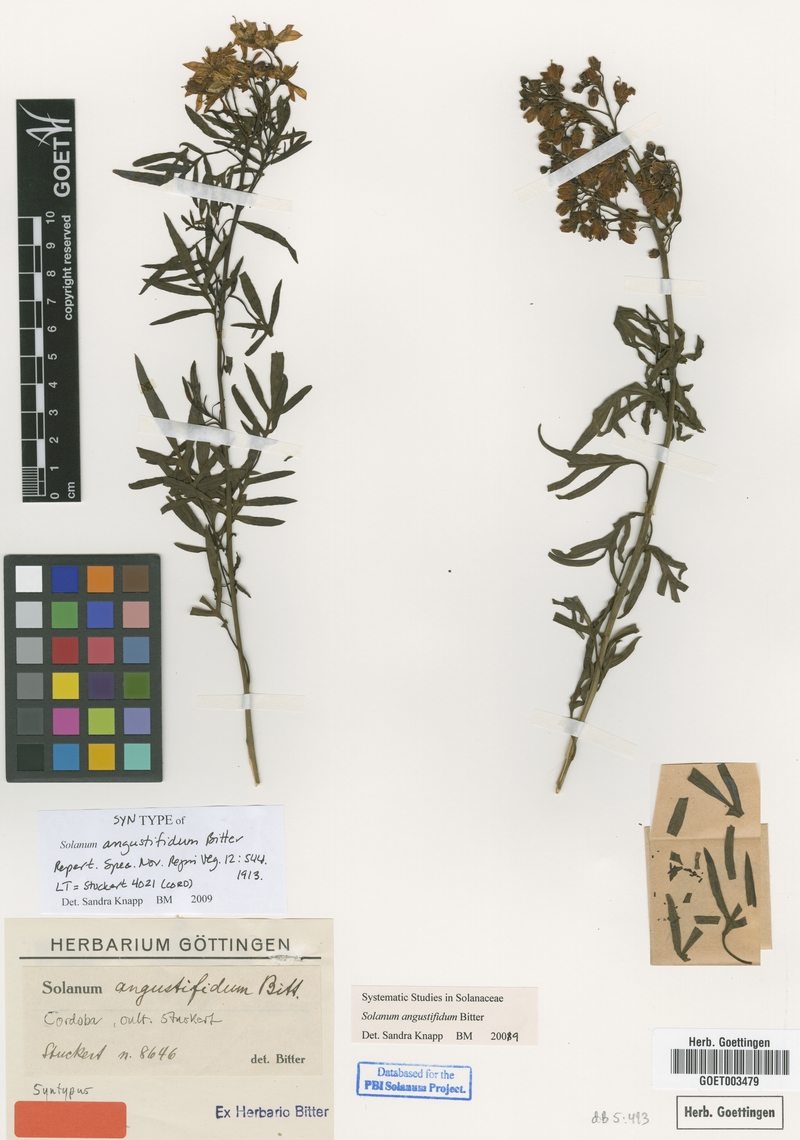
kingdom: Plantae
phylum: Tracheophyta
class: Magnoliopsida
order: Solanales
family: Solanaceae
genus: Solanum
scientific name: Solanum angustifidum
